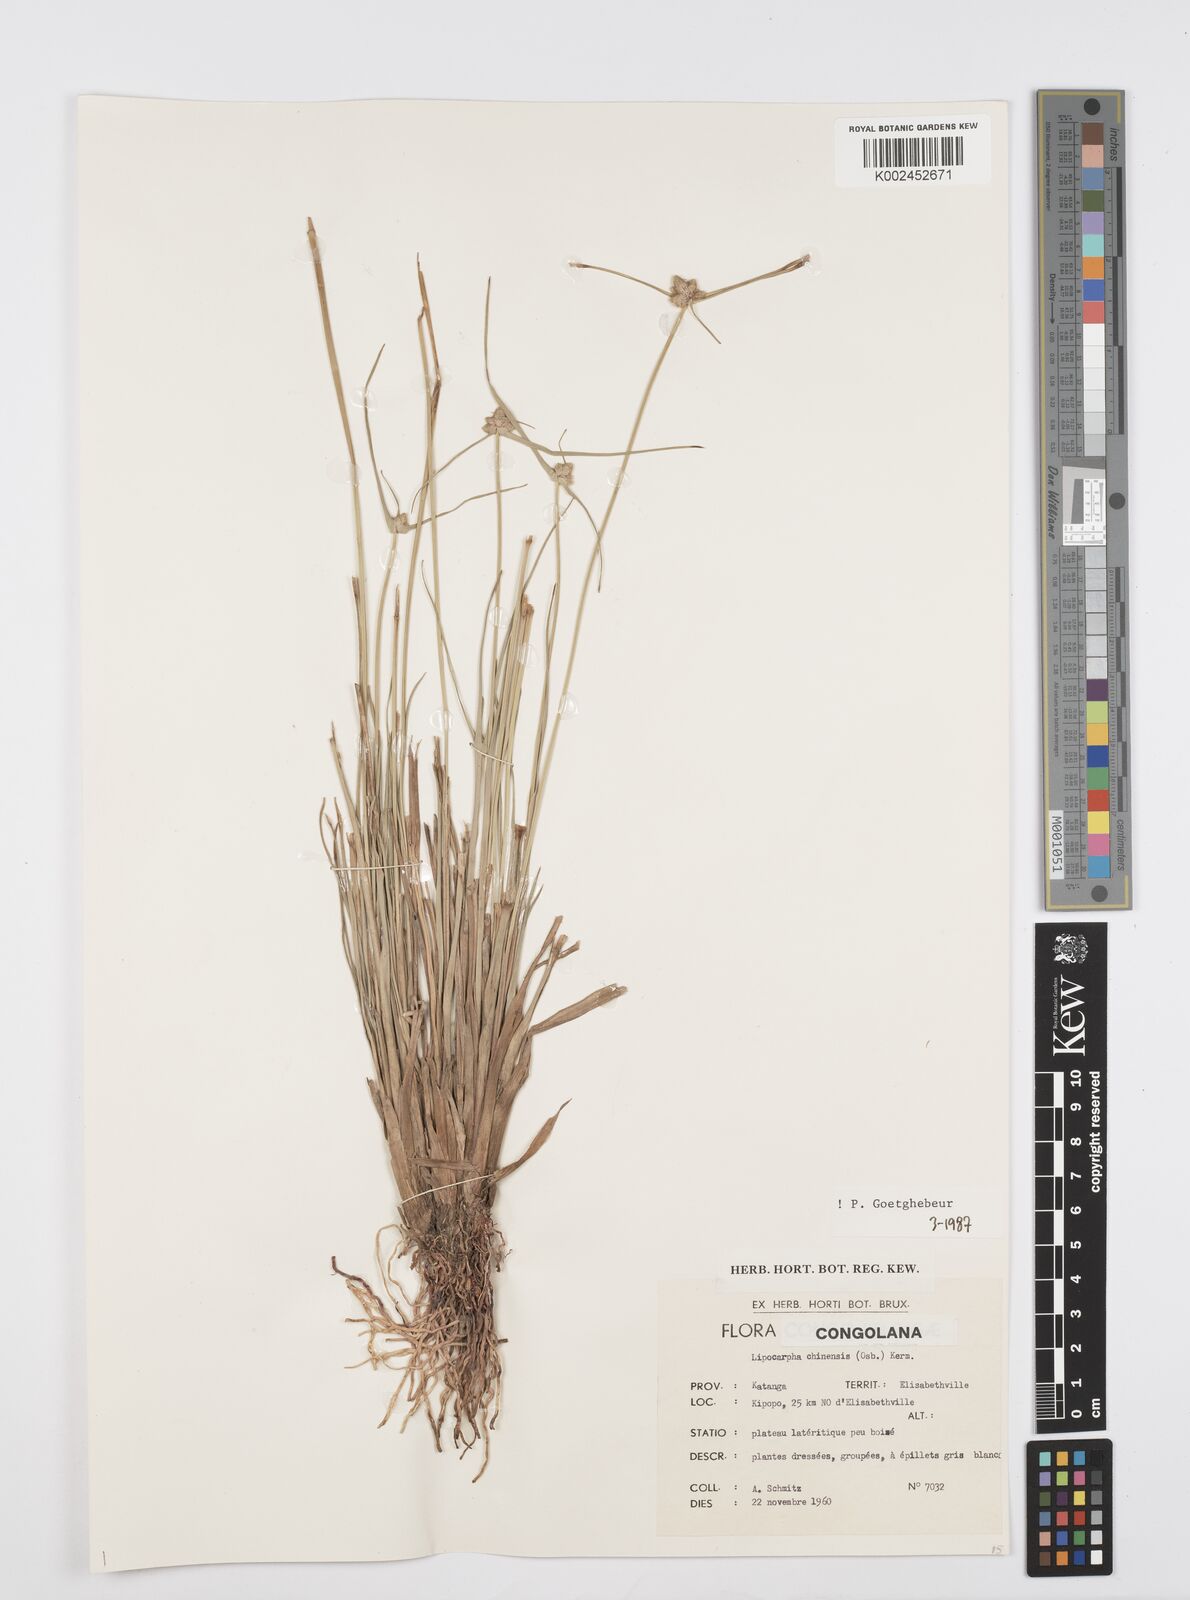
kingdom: Plantae
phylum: Tracheophyta
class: Liliopsida
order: Poales
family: Cyperaceae
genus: Cyperus
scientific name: Cyperus albescens
